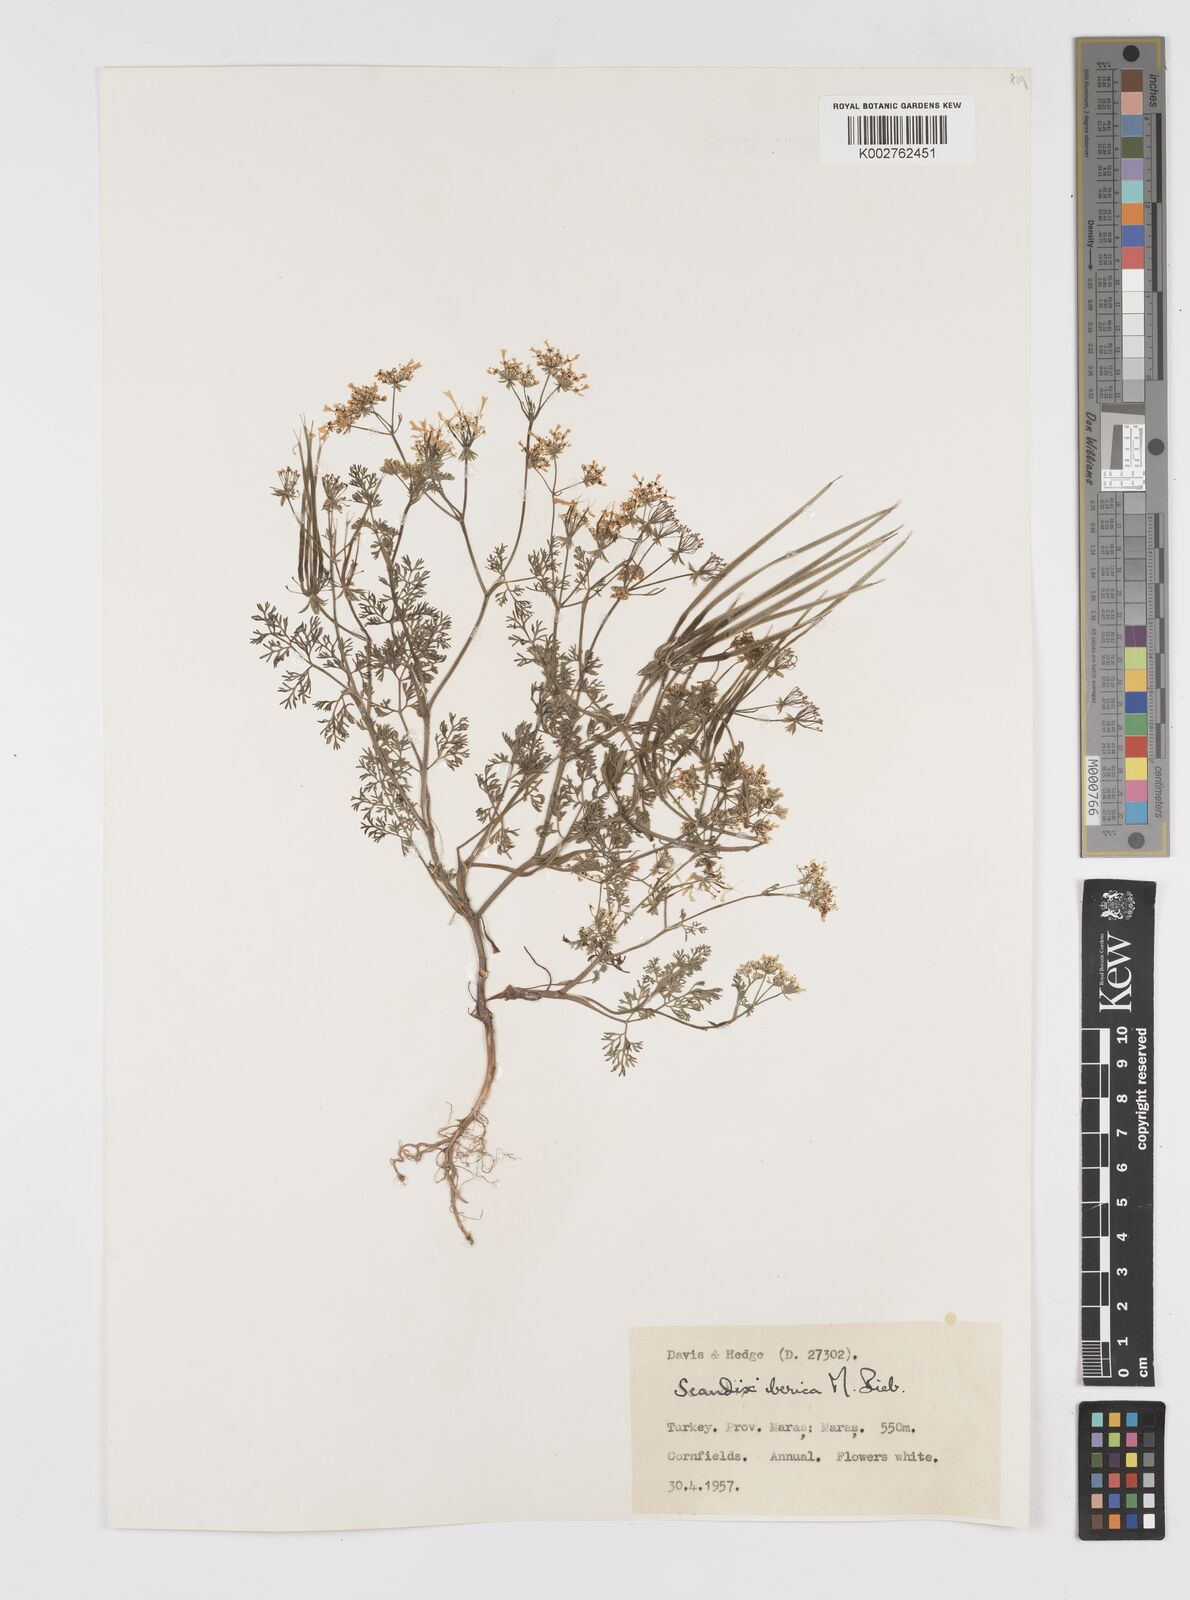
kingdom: Plantae
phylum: Tracheophyta
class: Magnoliopsida
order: Apiales
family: Apiaceae
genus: Scandix
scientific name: Scandix iberica
